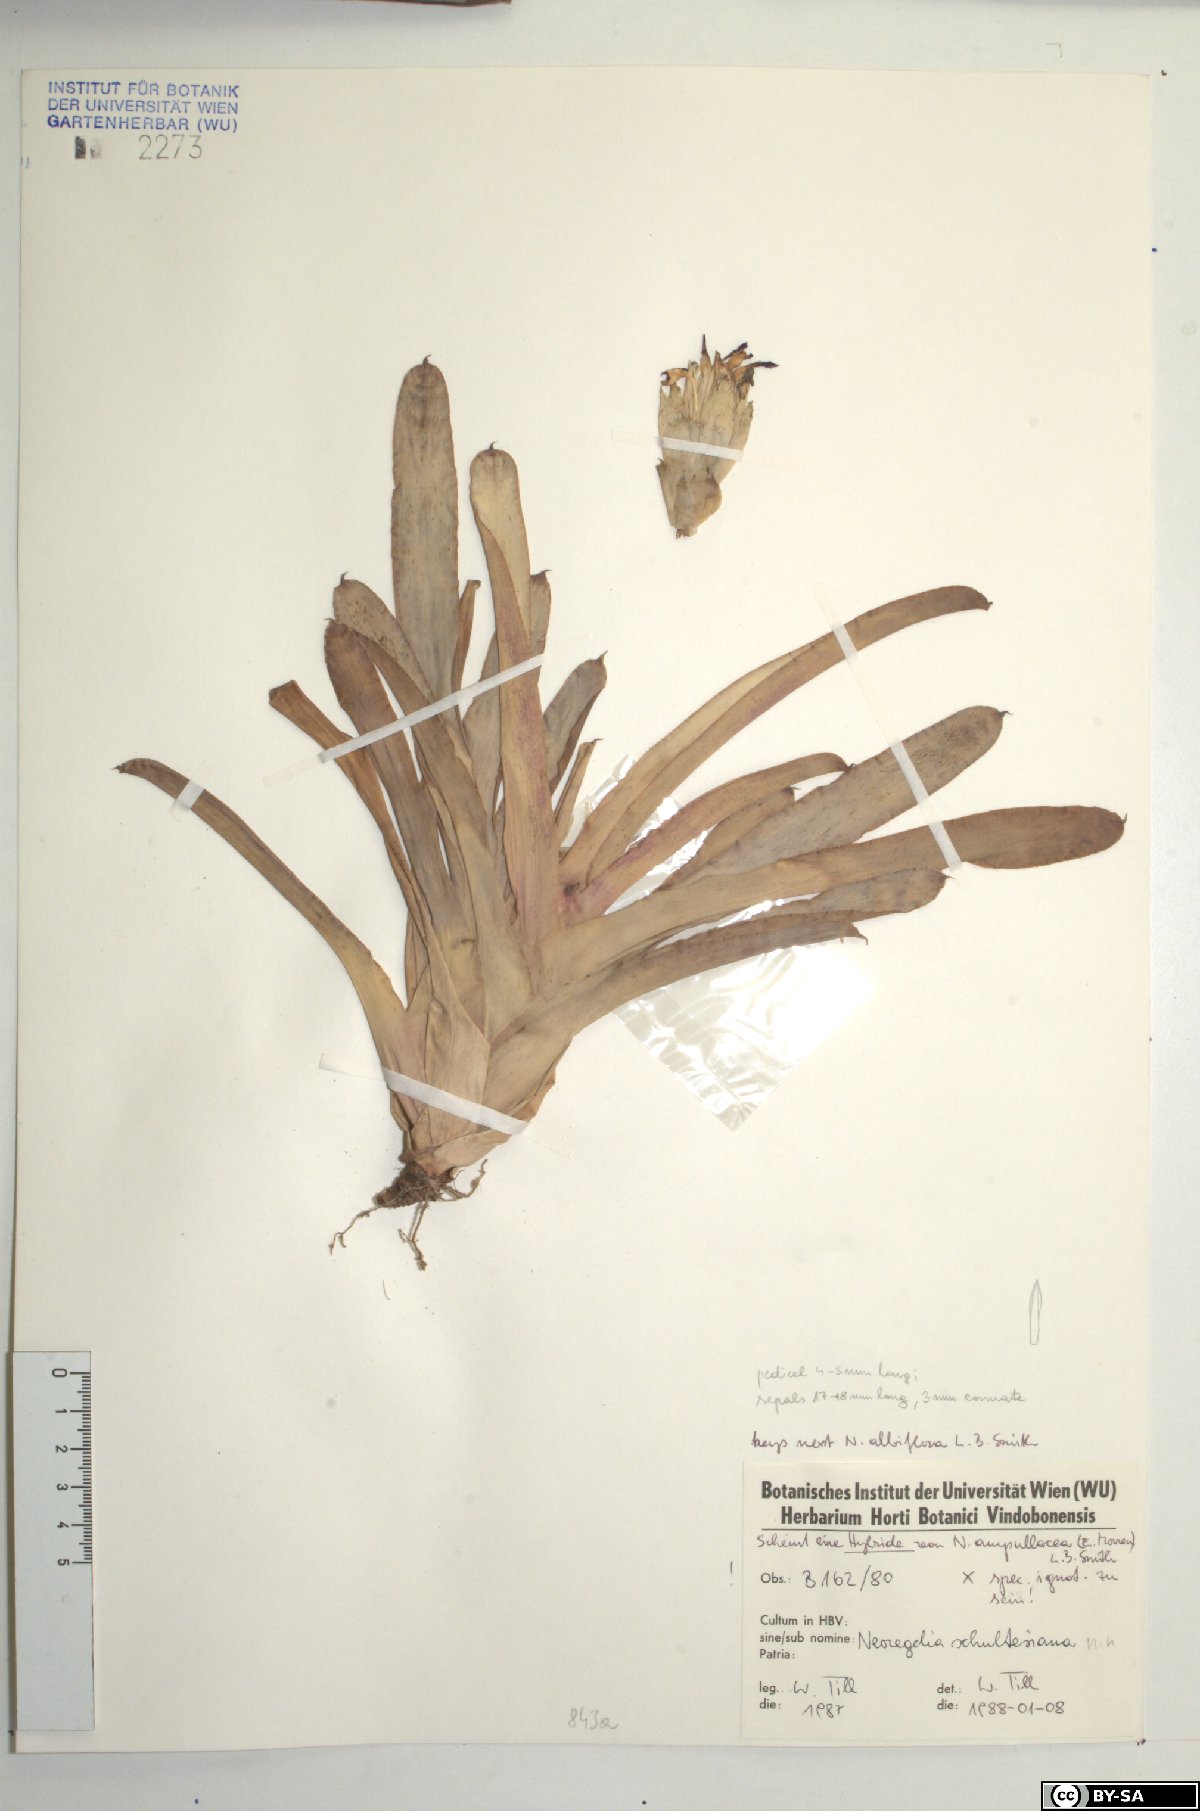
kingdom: Plantae
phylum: Tracheophyta
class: Liliopsida
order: Poales
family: Bromeliaceae
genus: Neoregelia
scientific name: Neoregelia ampullacea
